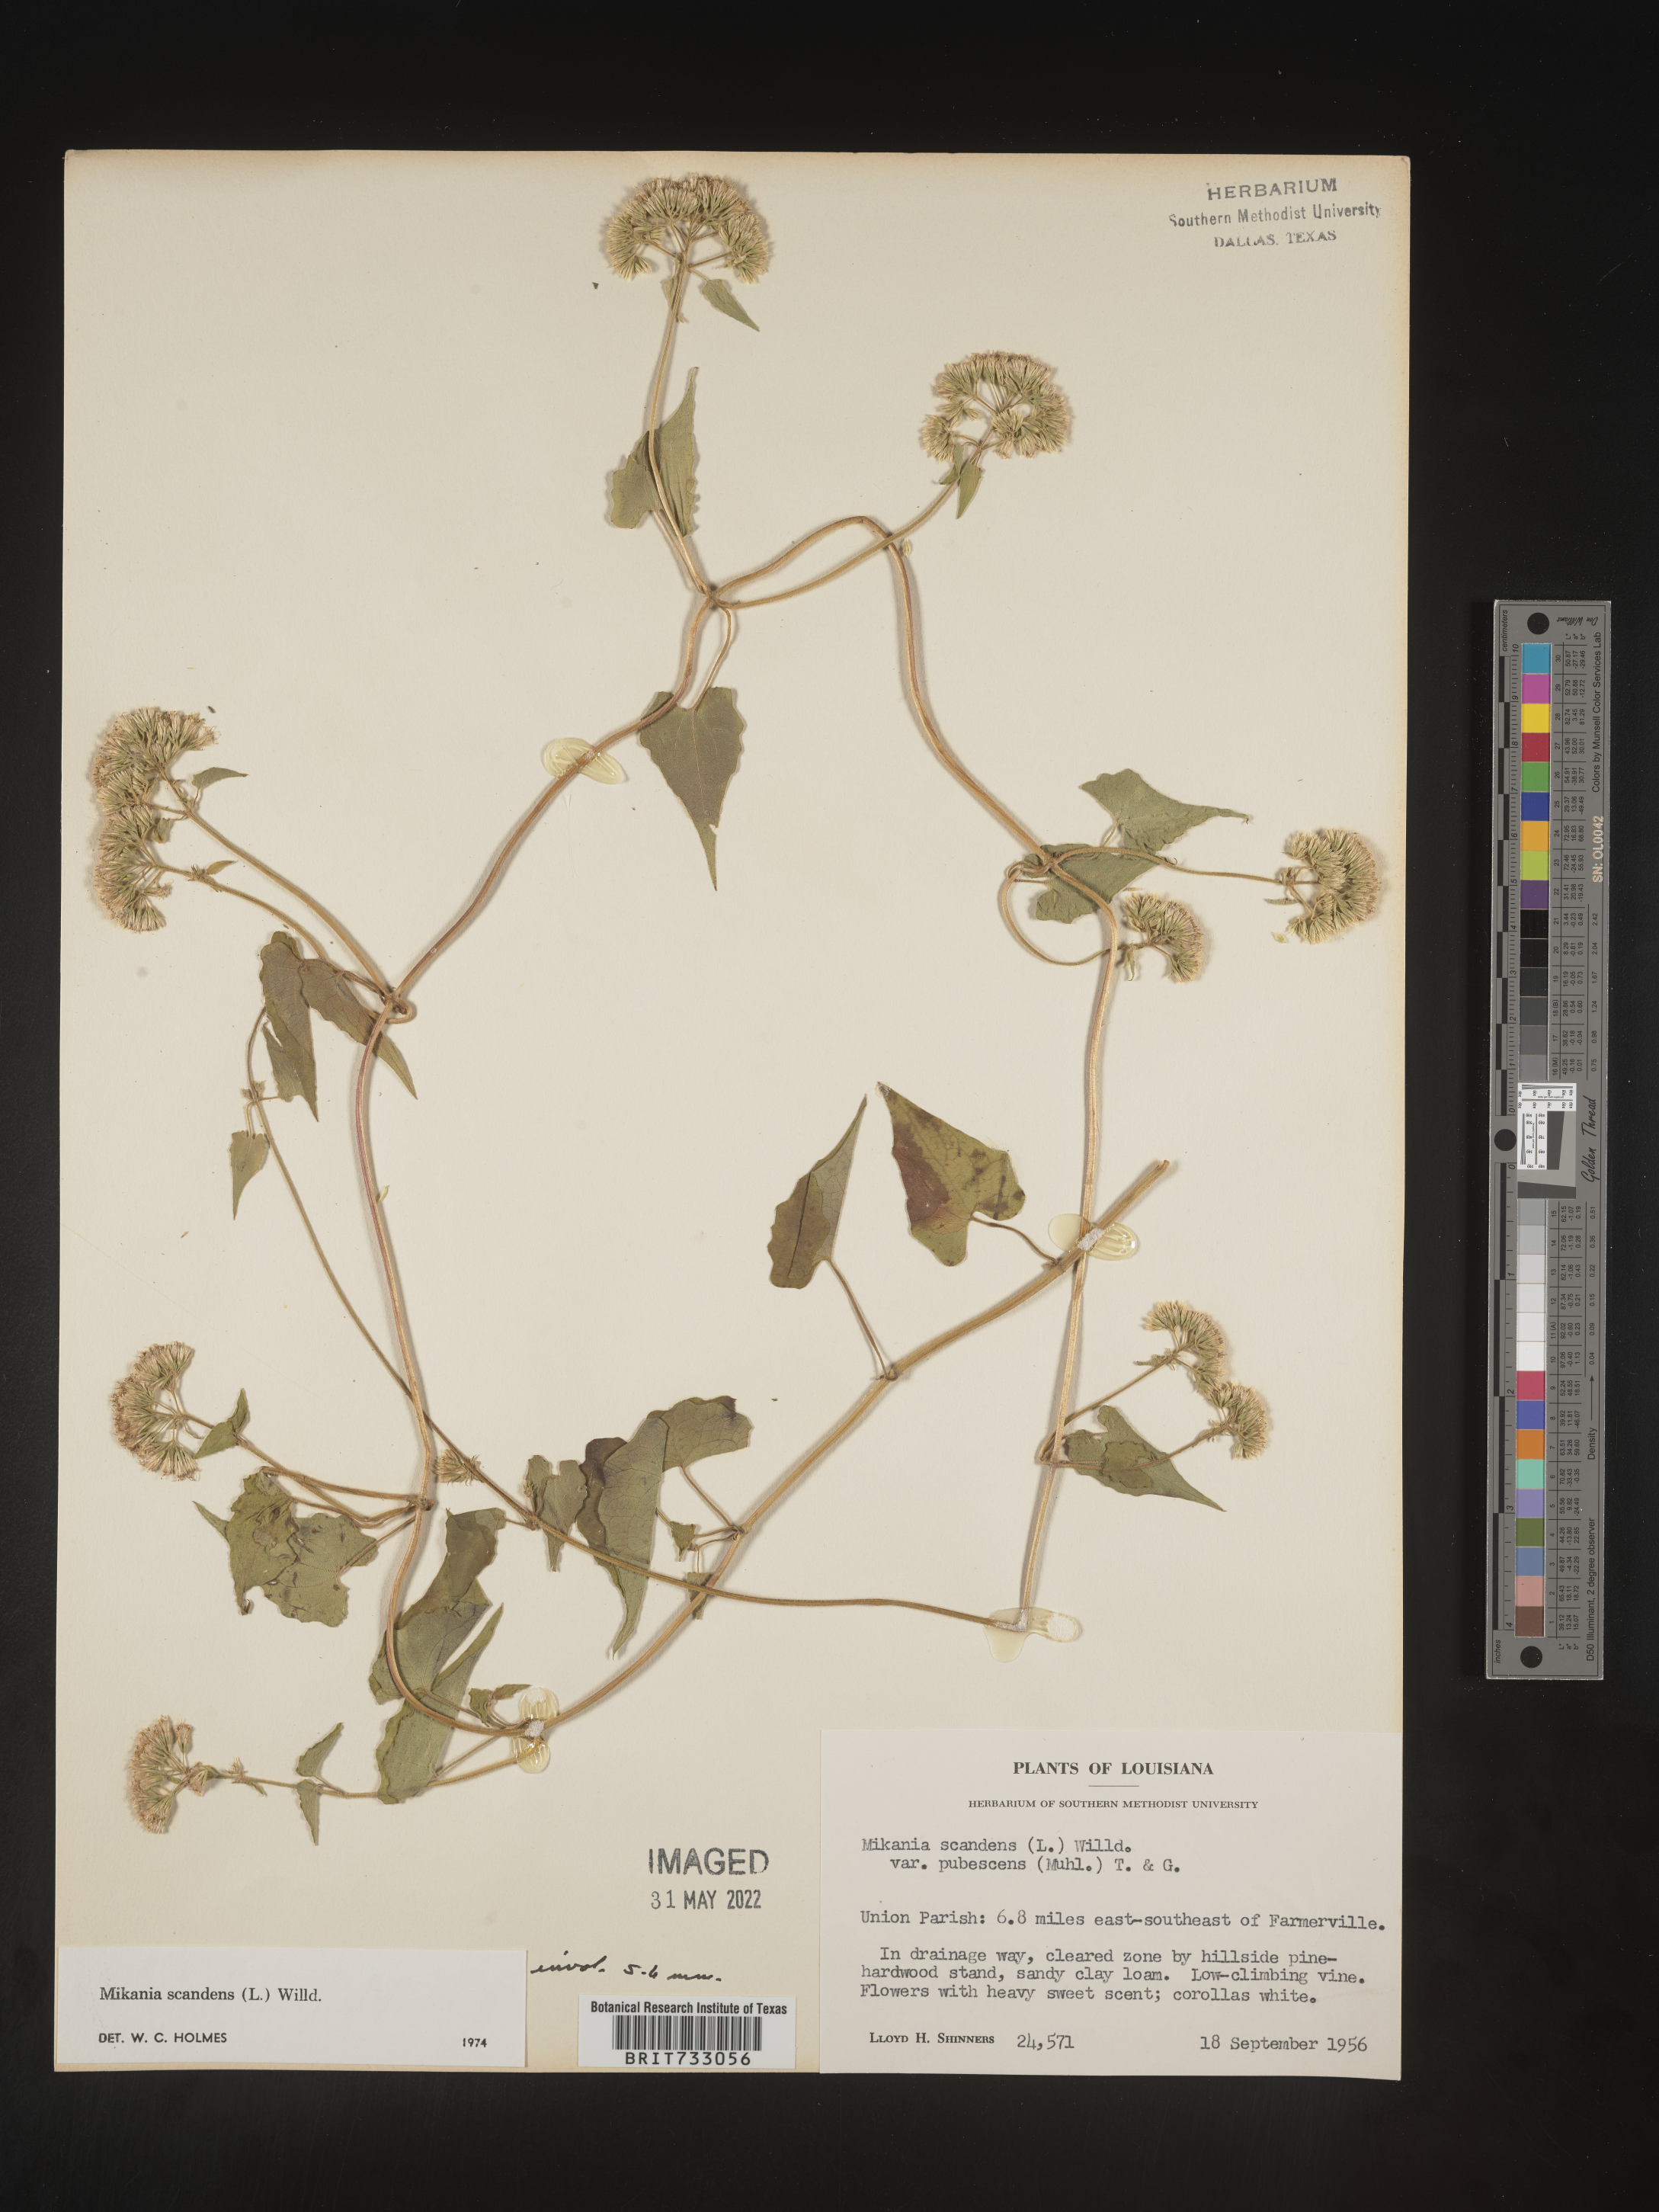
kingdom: Plantae
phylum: Tracheophyta
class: Magnoliopsida
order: Asterales
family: Asteraceae
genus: Mikania
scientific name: Mikania scandens
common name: Climbing hempvine
